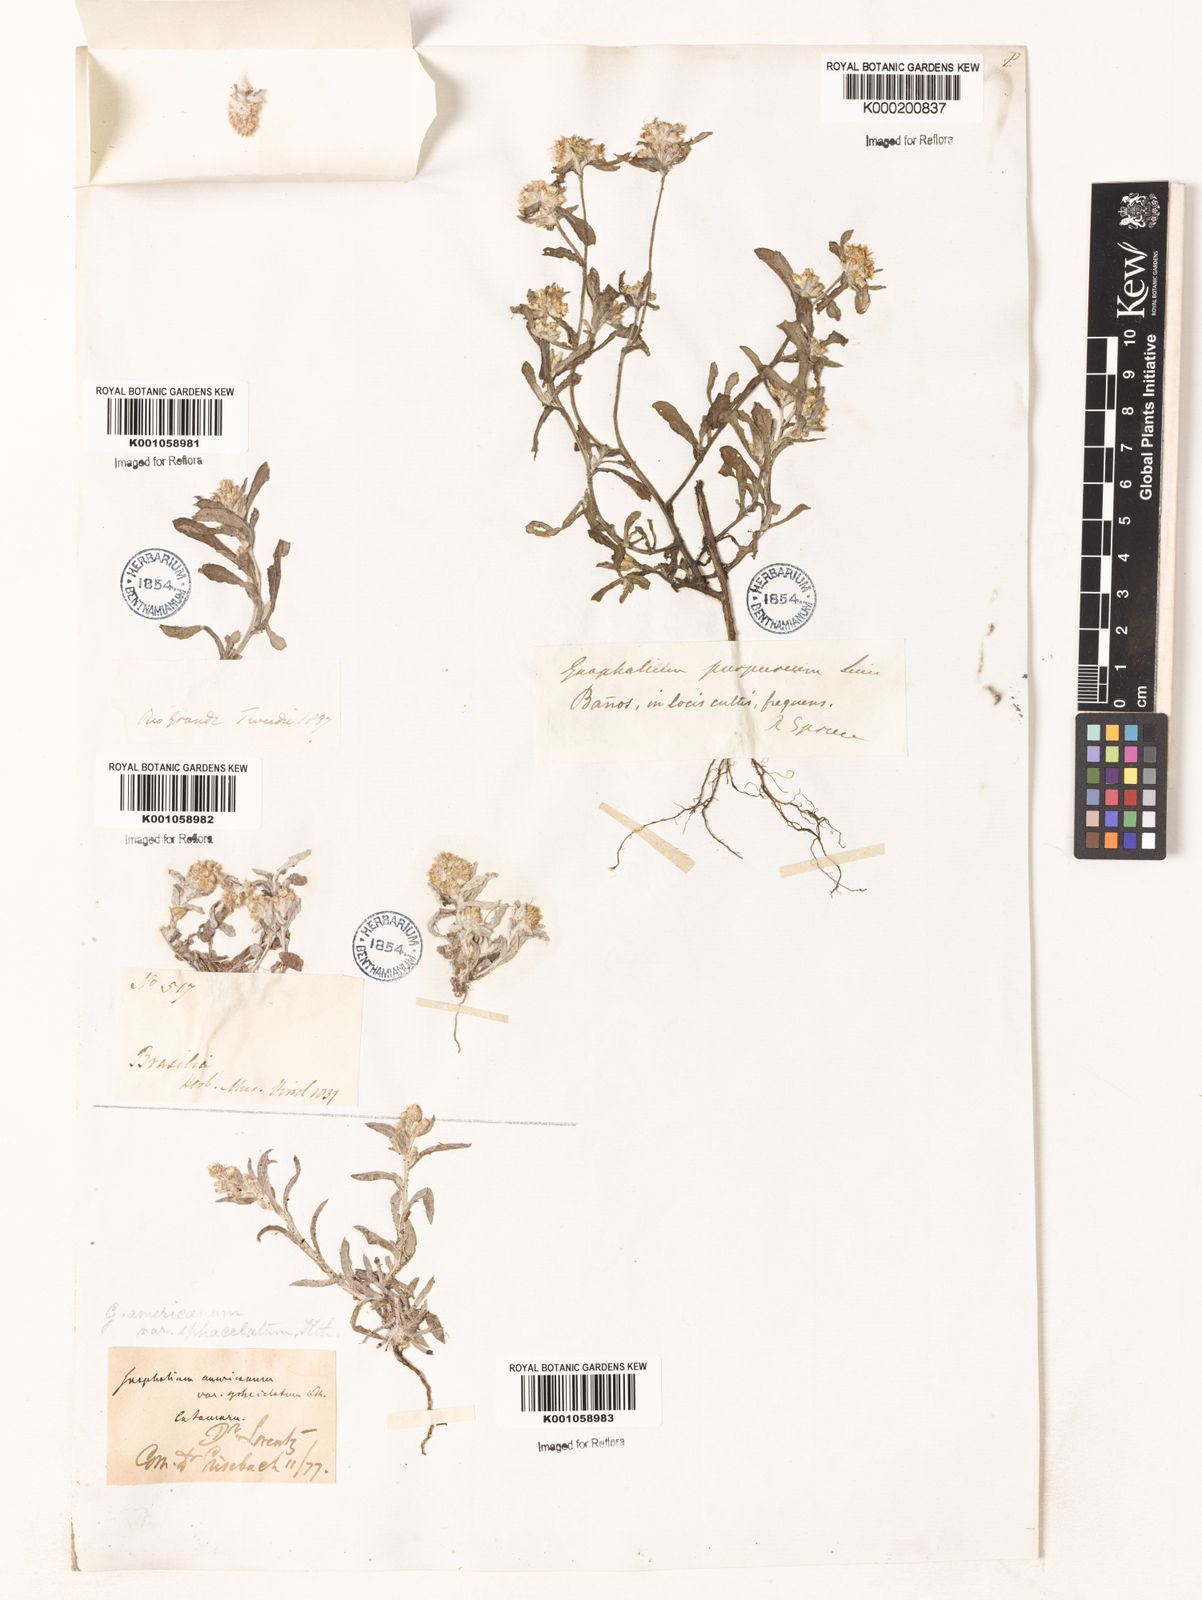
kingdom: Plantae
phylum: Tracheophyta
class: Magnoliopsida
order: Asterales
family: Asteraceae
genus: Gamochaeta
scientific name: Gamochaeta americana
